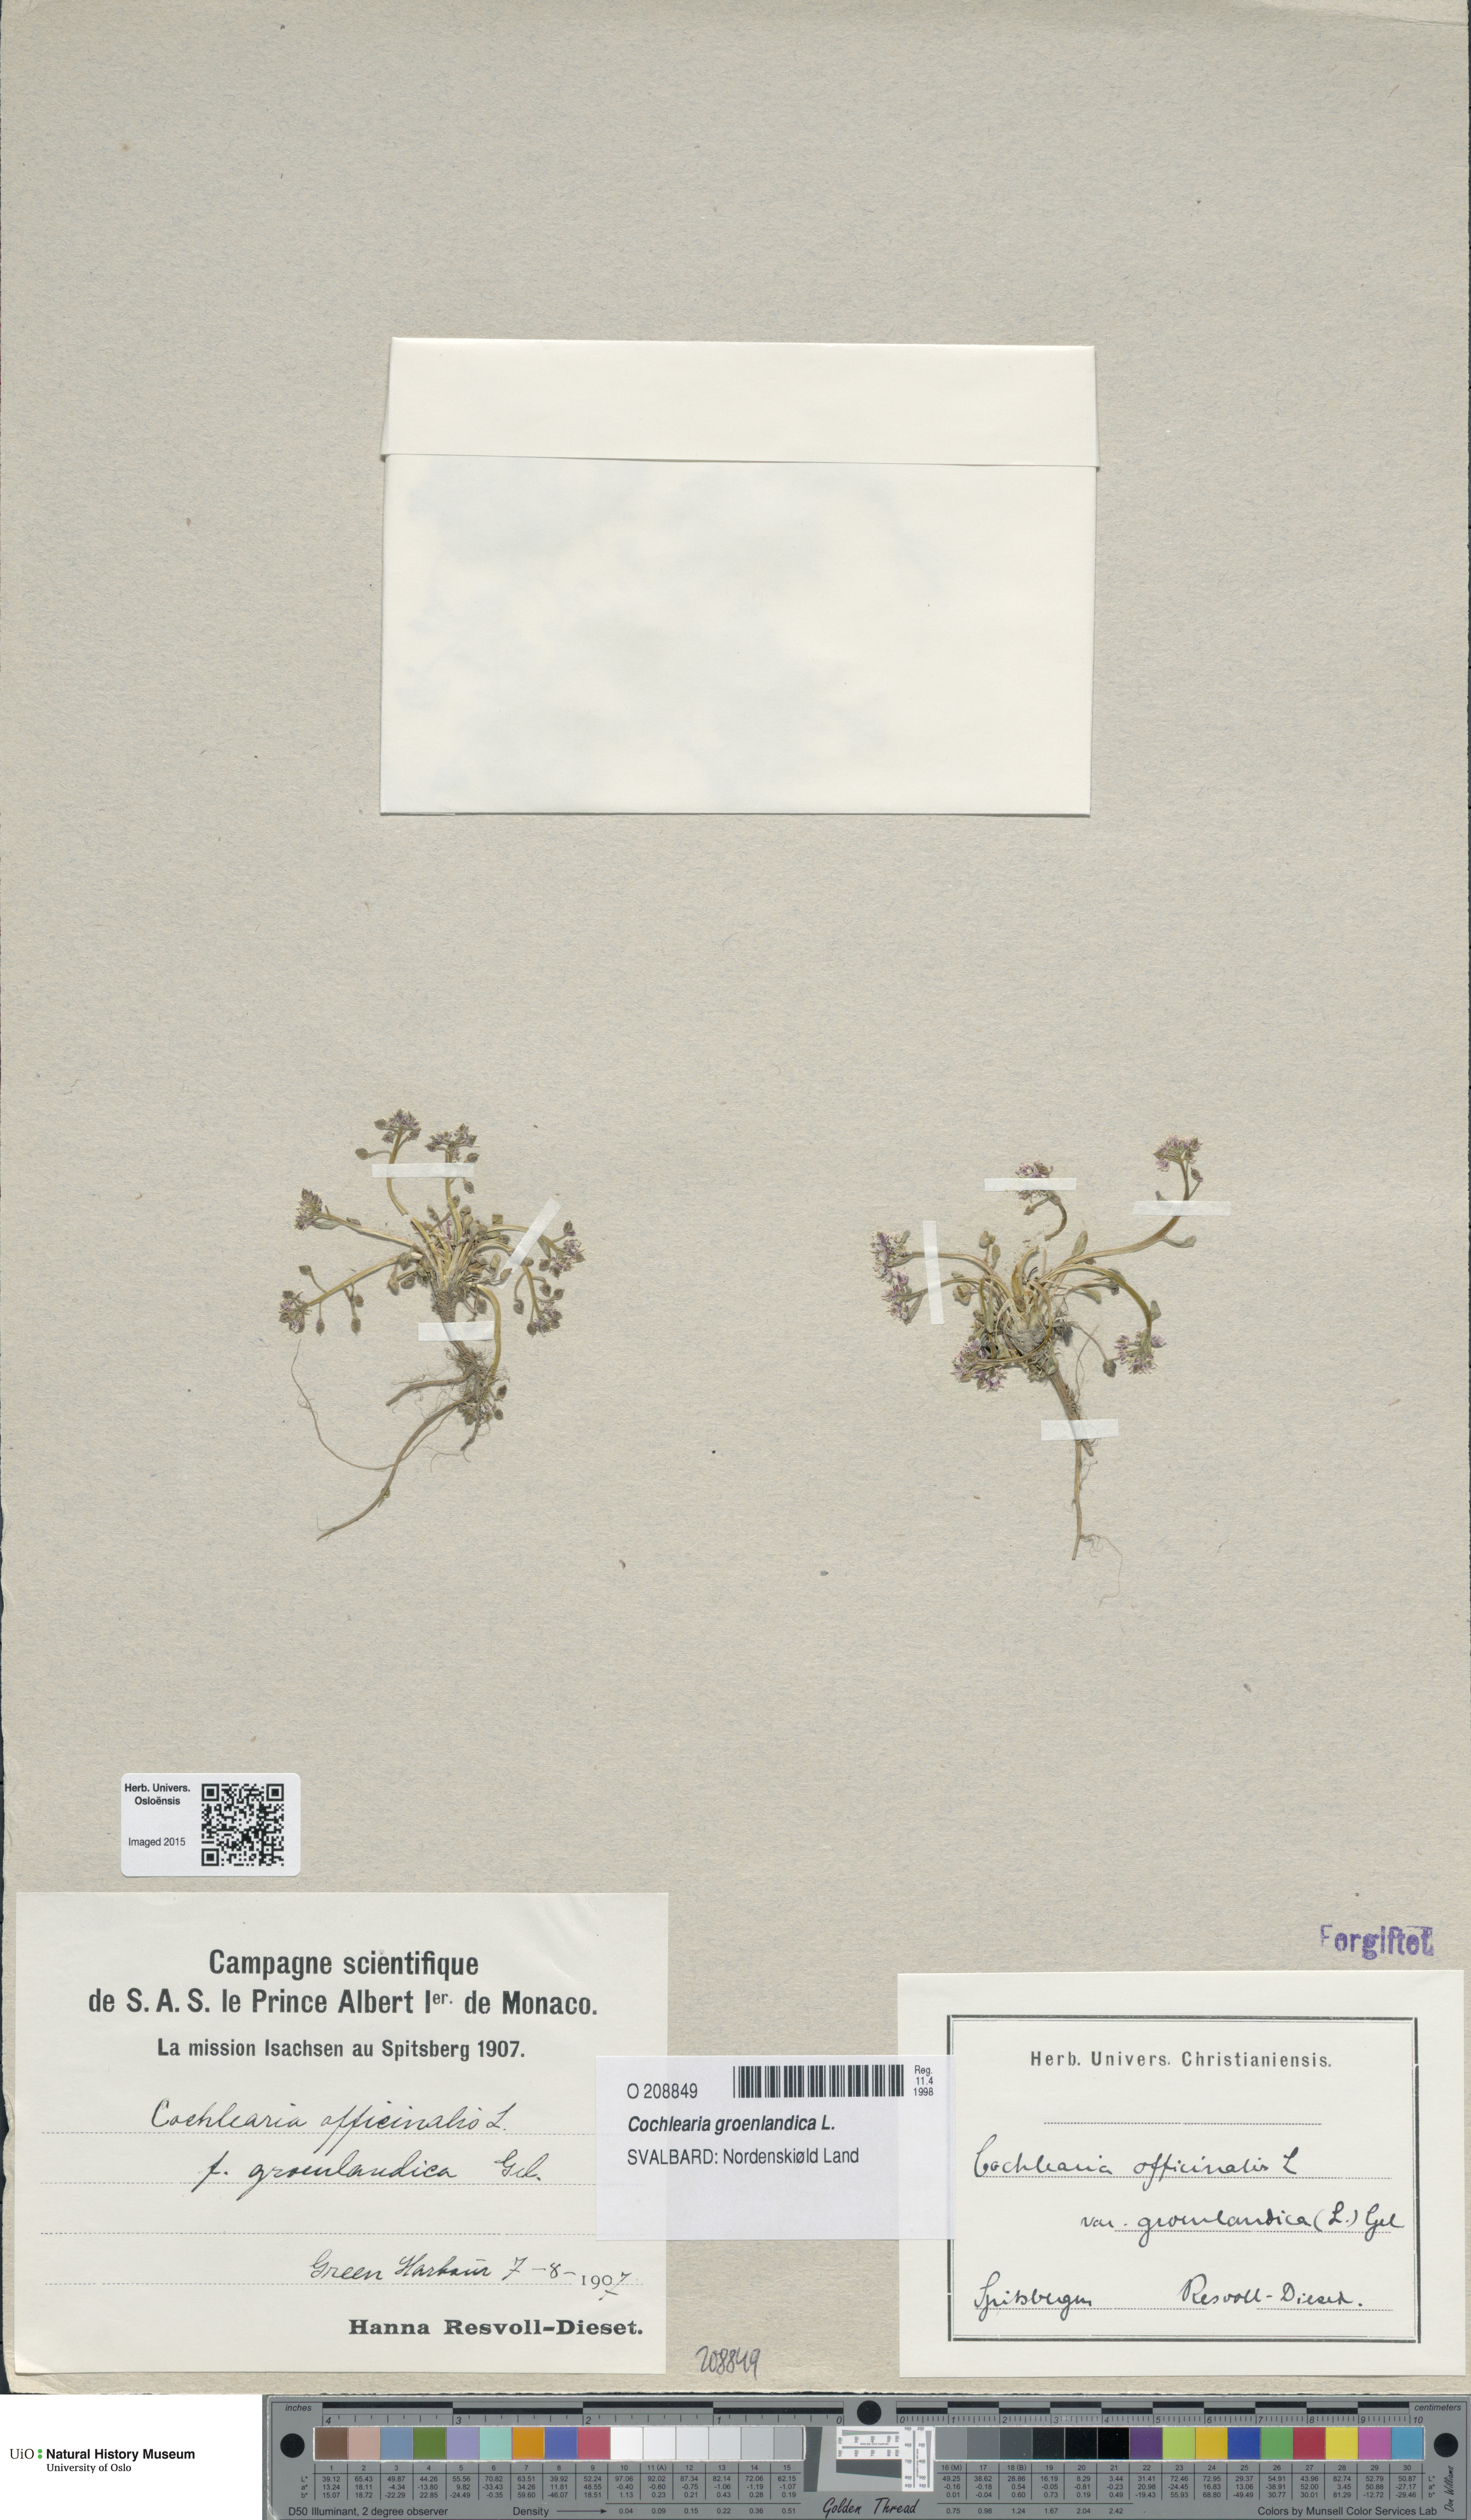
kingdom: Plantae
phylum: Tracheophyta
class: Magnoliopsida
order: Brassicales
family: Brassicaceae
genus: Cochlearia
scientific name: Cochlearia groenlandica
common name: Danish scurvygrass
